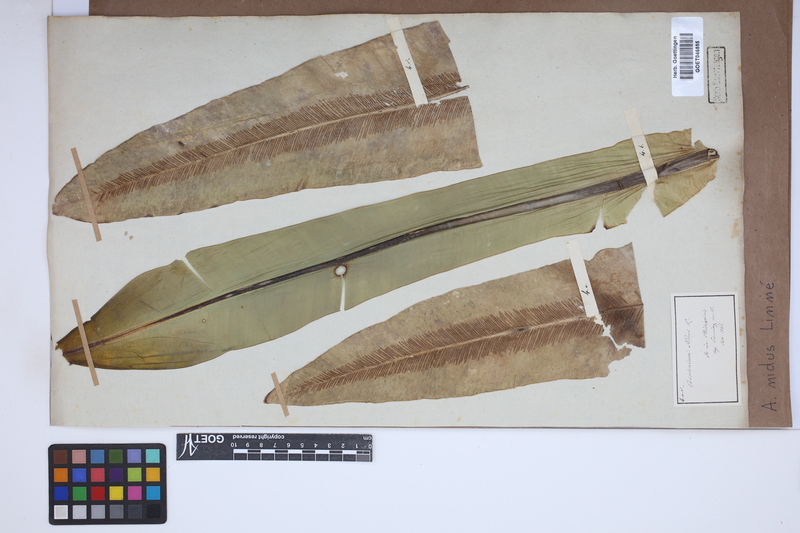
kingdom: Plantae
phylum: Tracheophyta
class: Polypodiopsida
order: Polypodiales
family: Aspleniaceae
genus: Asplenium
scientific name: Asplenium nidus
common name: Bird's-nest fern
